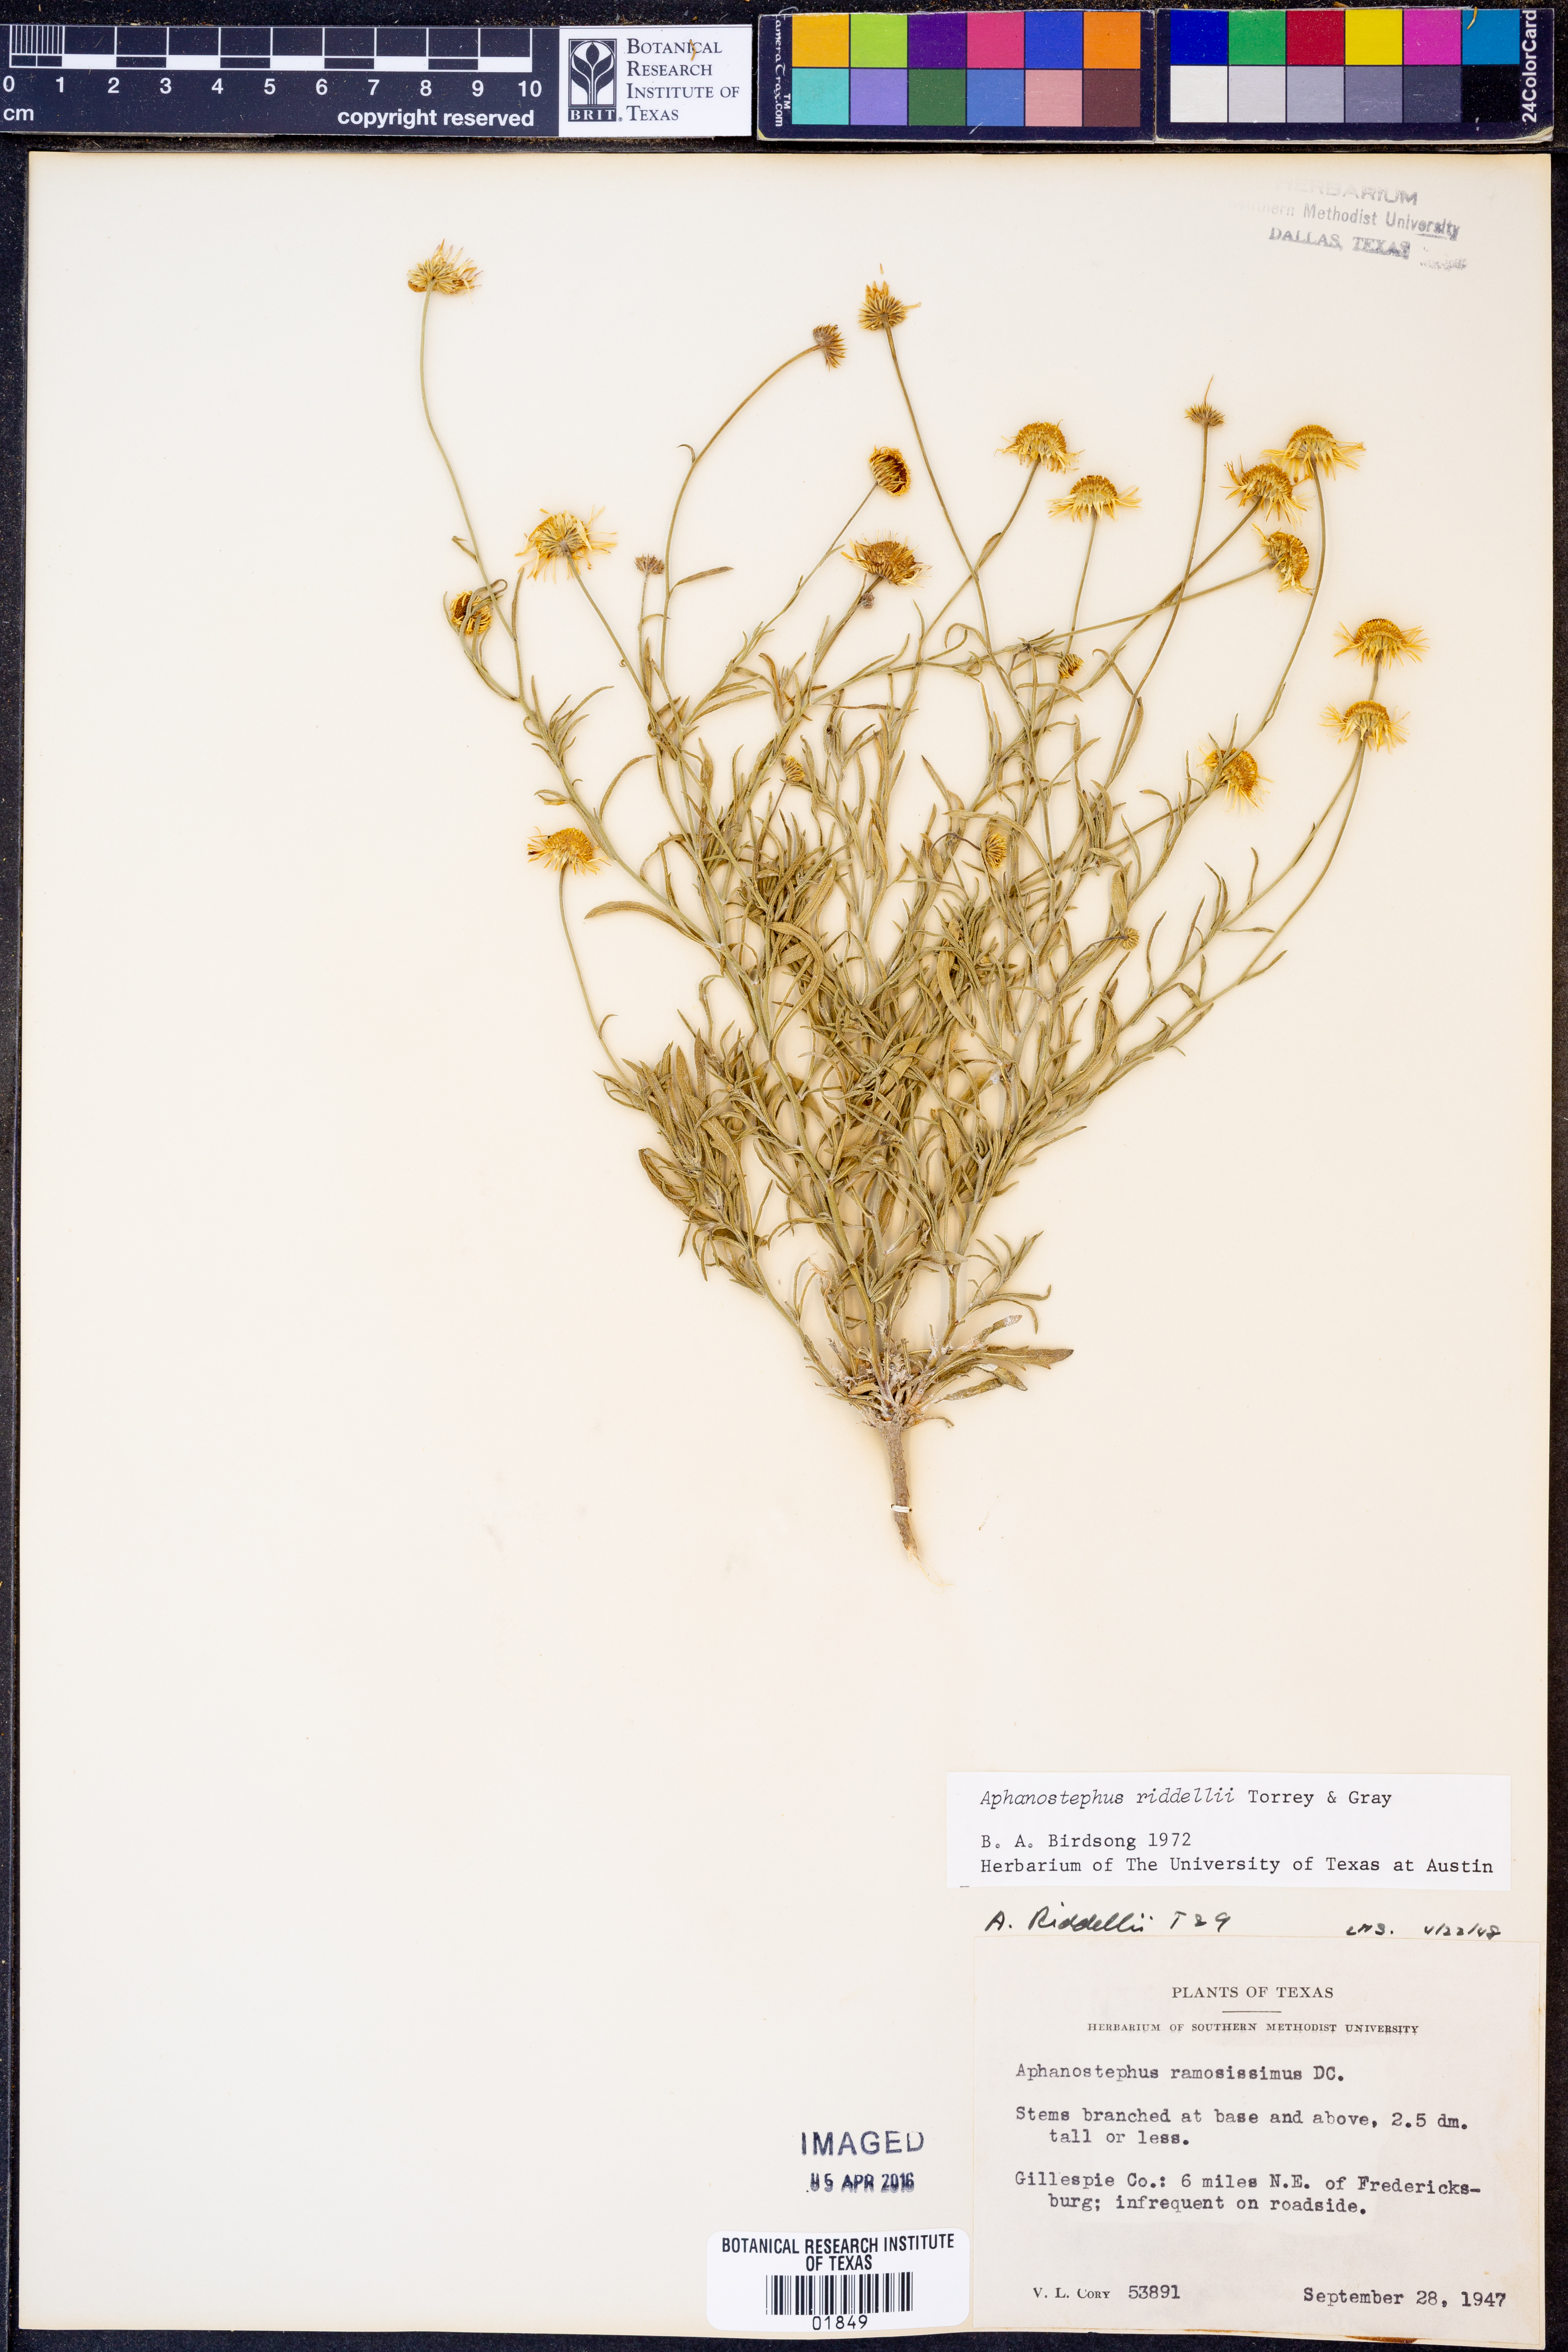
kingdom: Plantae
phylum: Tracheophyta
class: Magnoliopsida
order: Asterales
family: Asteraceae
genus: Aphanostephus
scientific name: Aphanostephus riddellii
